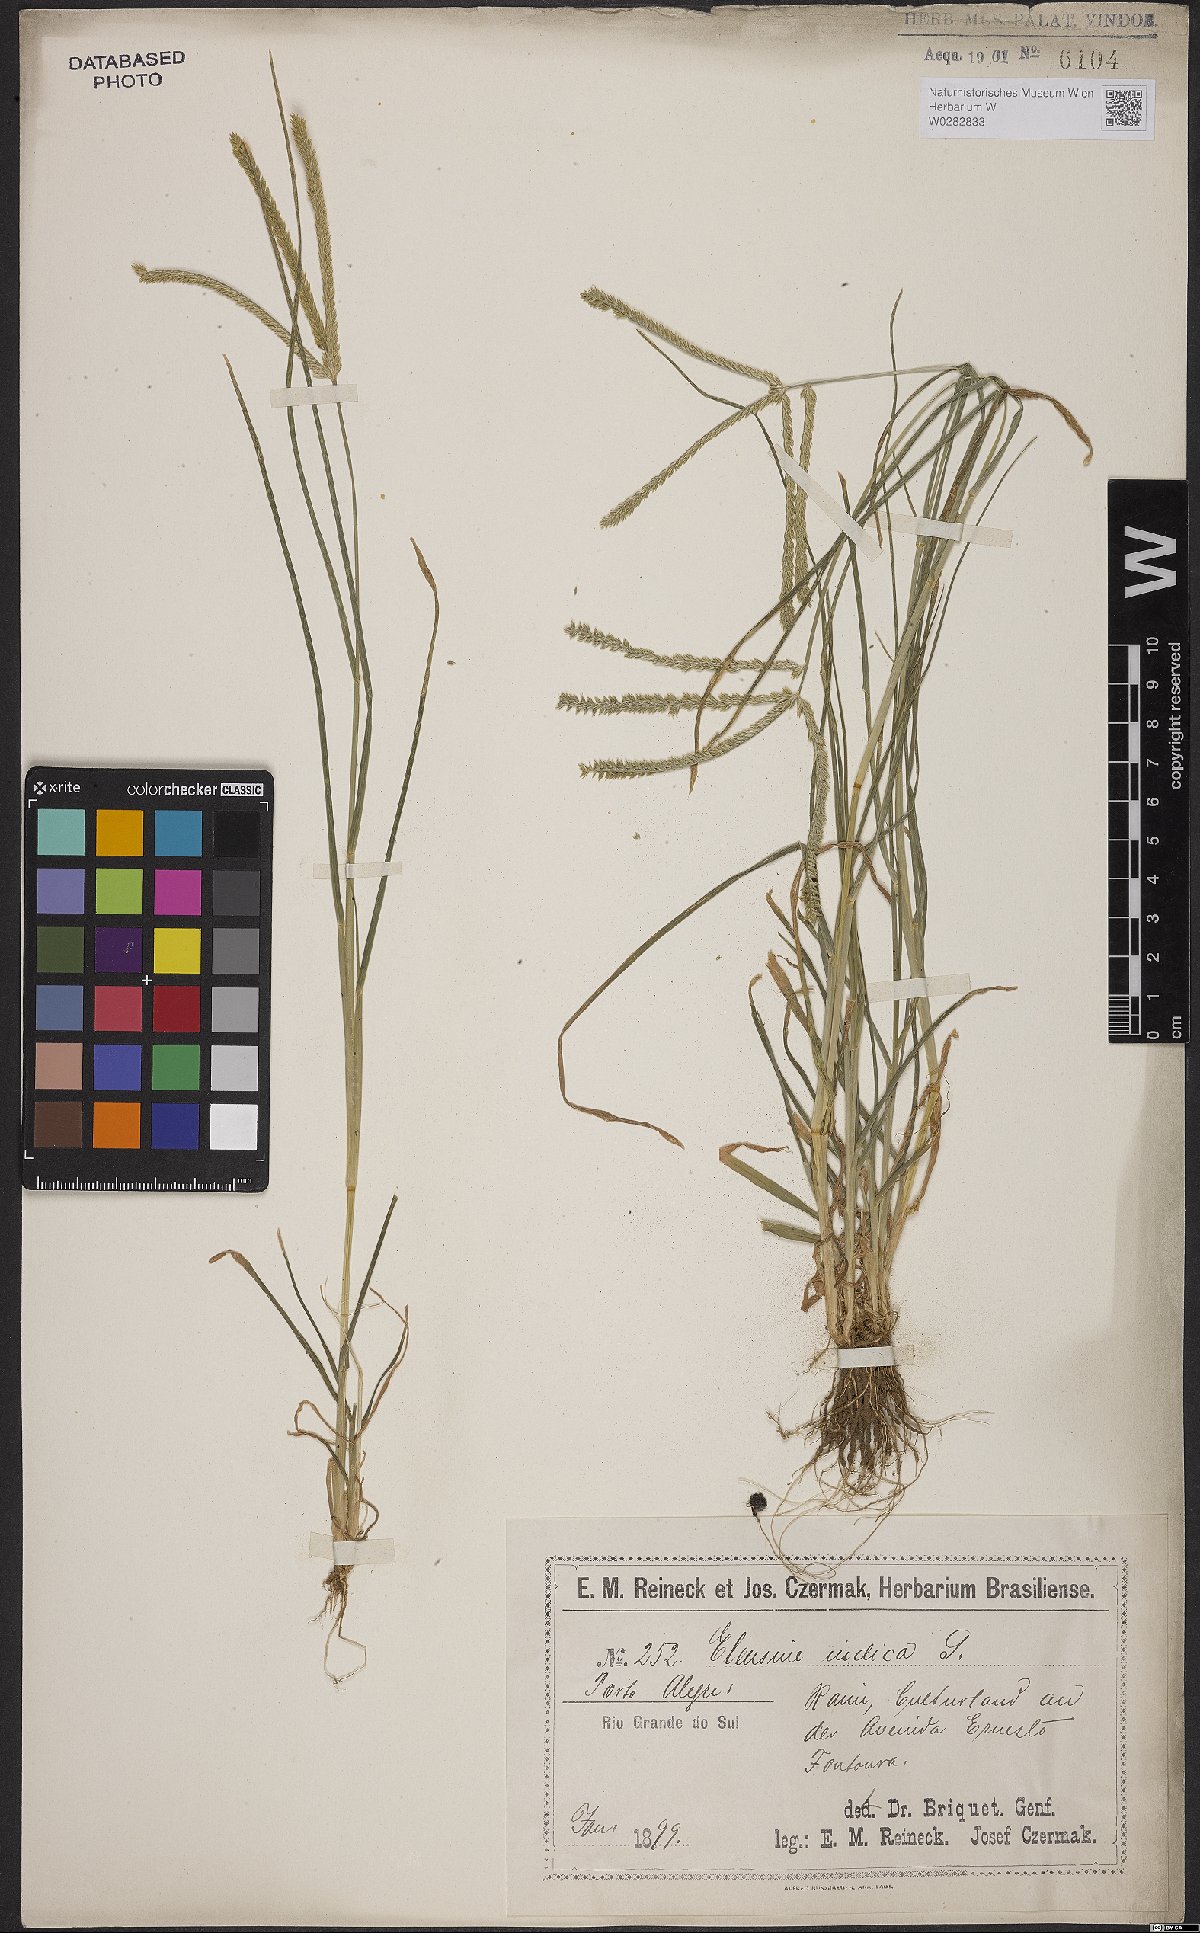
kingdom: Plantae
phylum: Tracheophyta
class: Liliopsida
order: Poales
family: Poaceae
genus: Eleusine
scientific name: Eleusine indica
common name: Yard-grass
